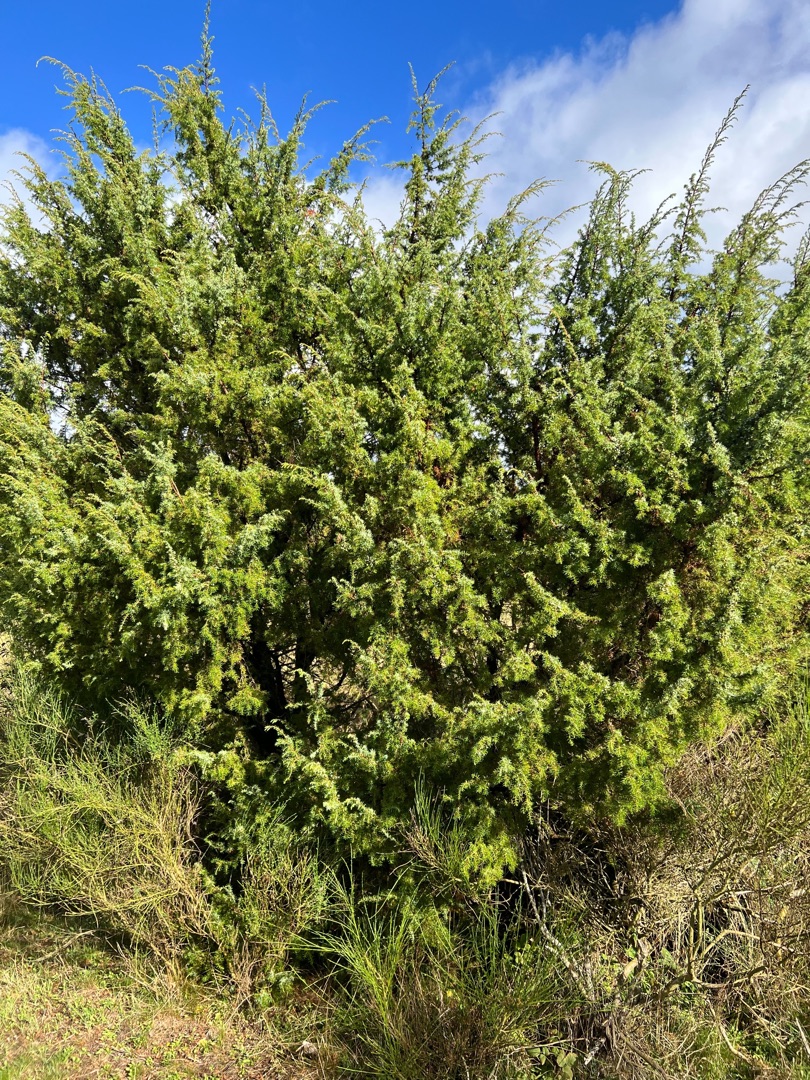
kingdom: Plantae
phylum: Tracheophyta
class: Pinopsida
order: Pinales
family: Cupressaceae
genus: Juniperus
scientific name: Juniperus communis
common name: Almindelig ene
